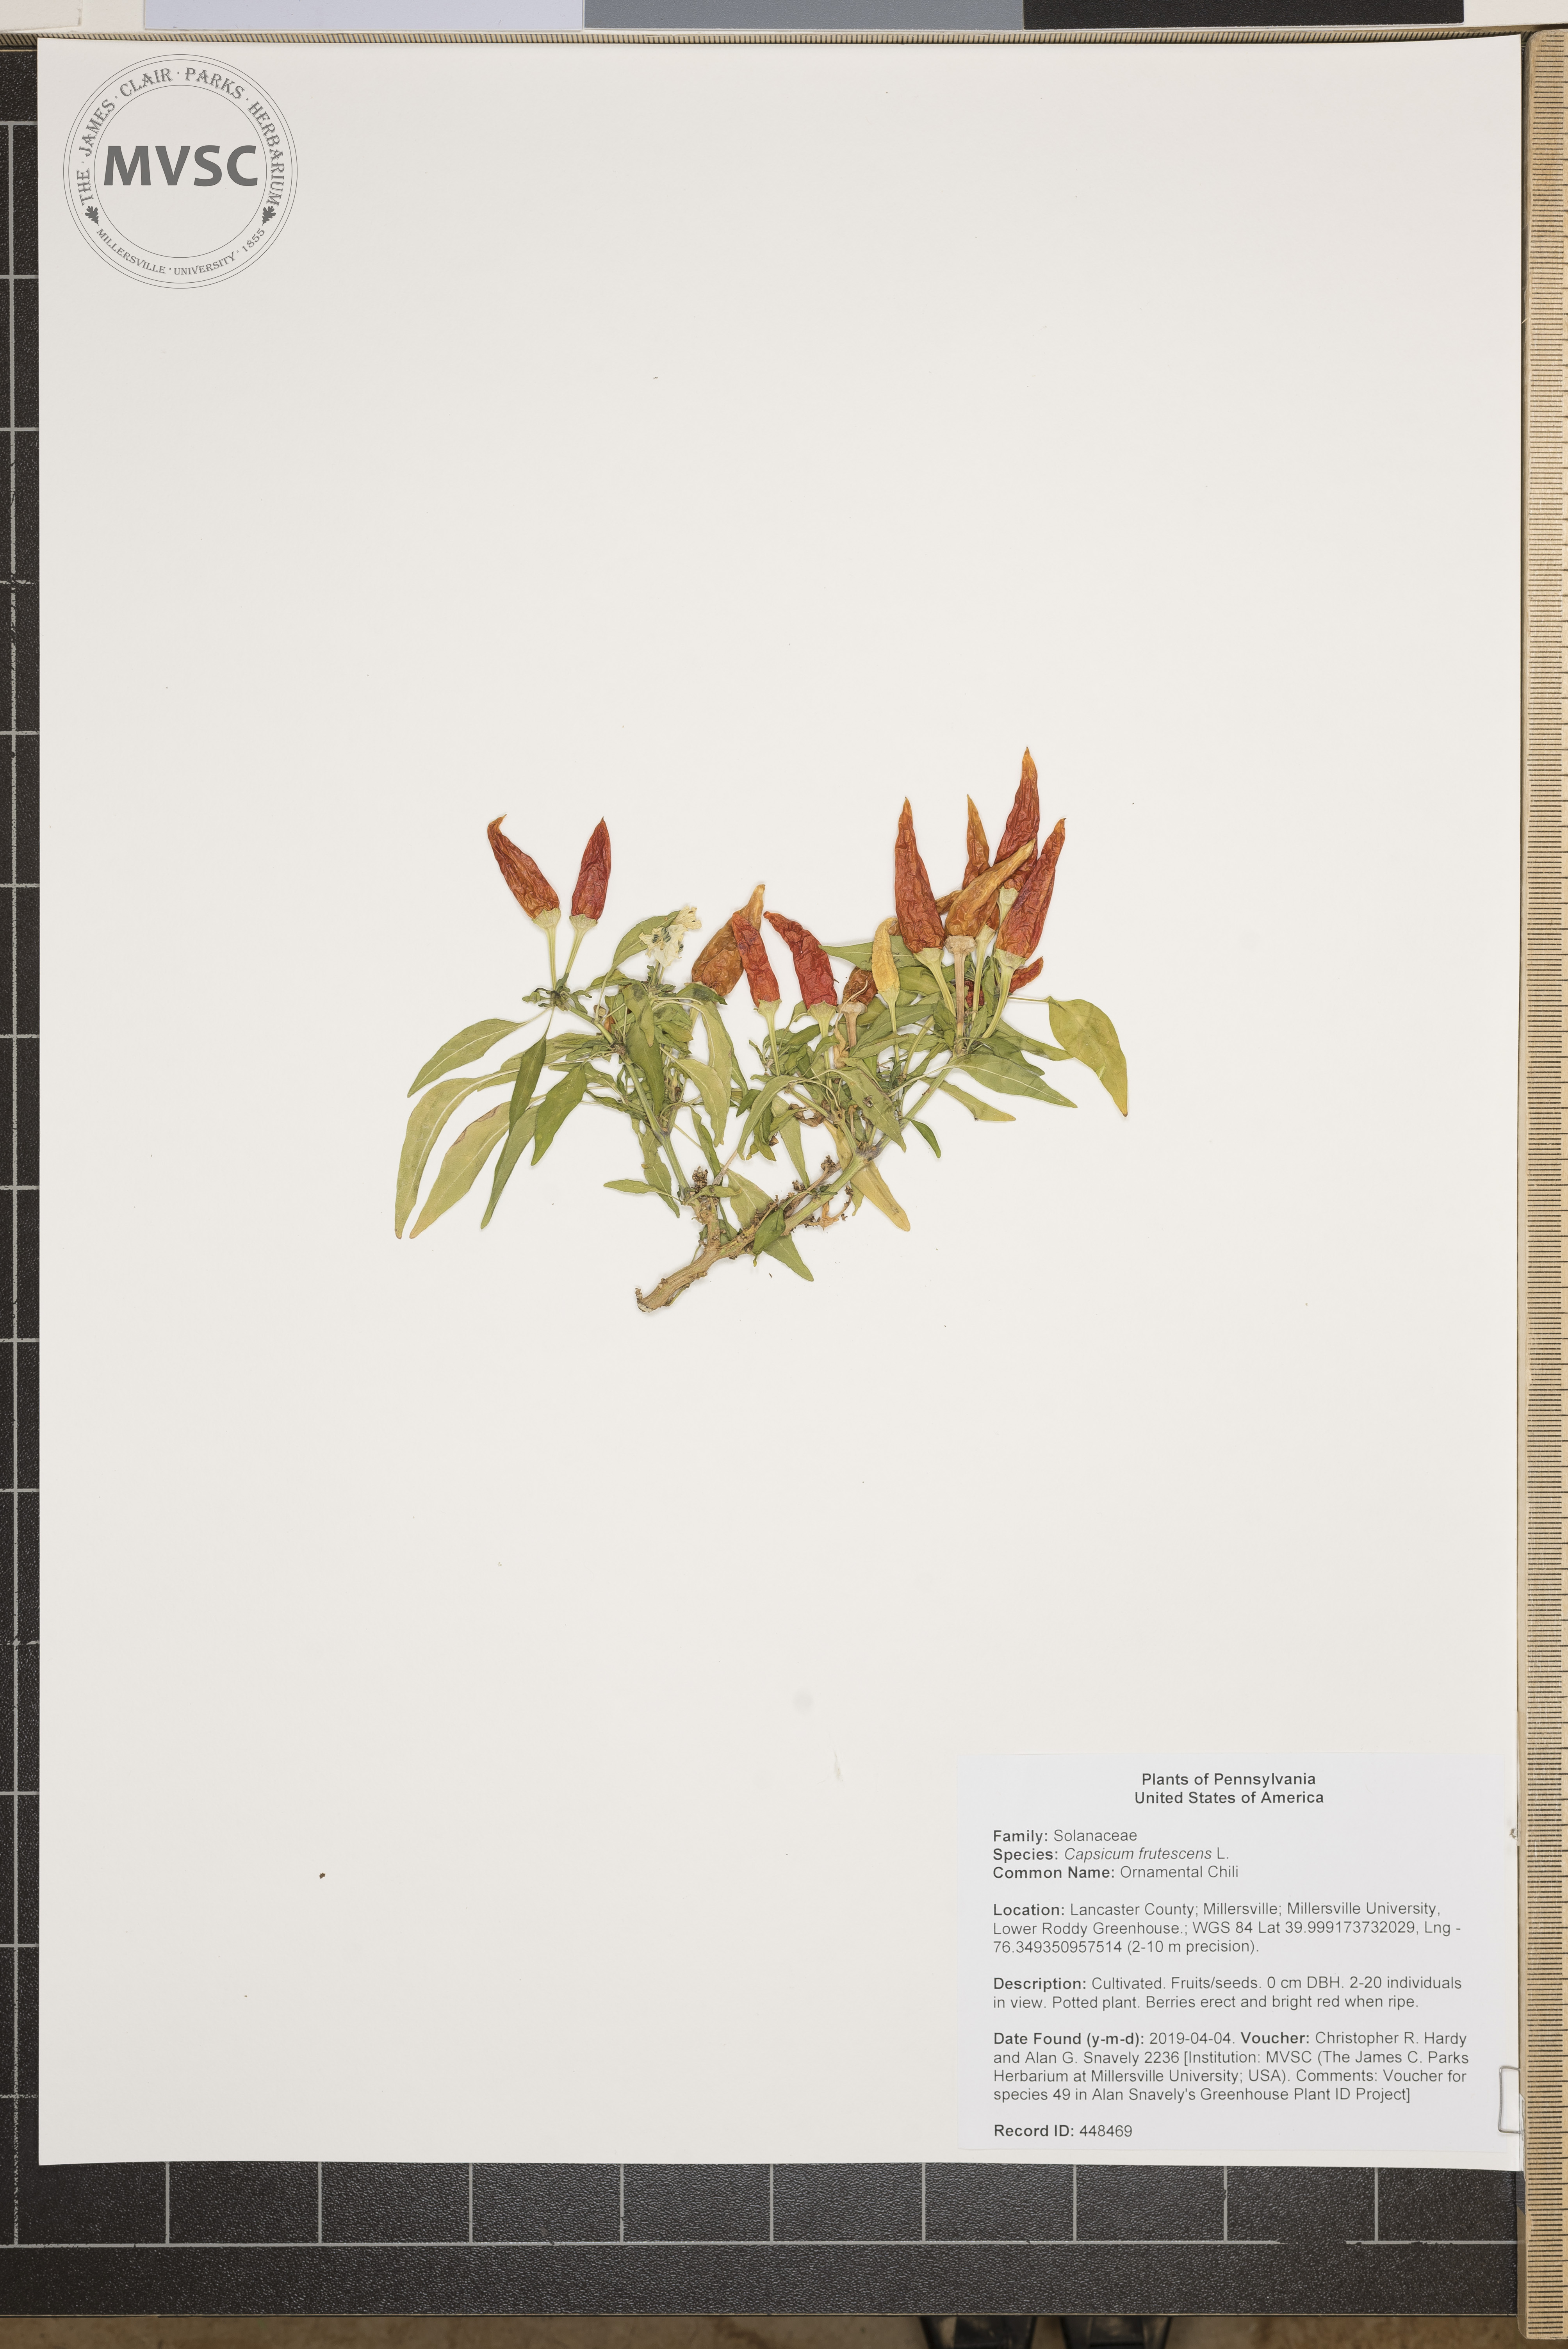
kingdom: Plantae
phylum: Tracheophyta
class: Magnoliopsida
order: Solanales
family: Solanaceae
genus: Capsicum
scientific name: Capsicum frutescens
